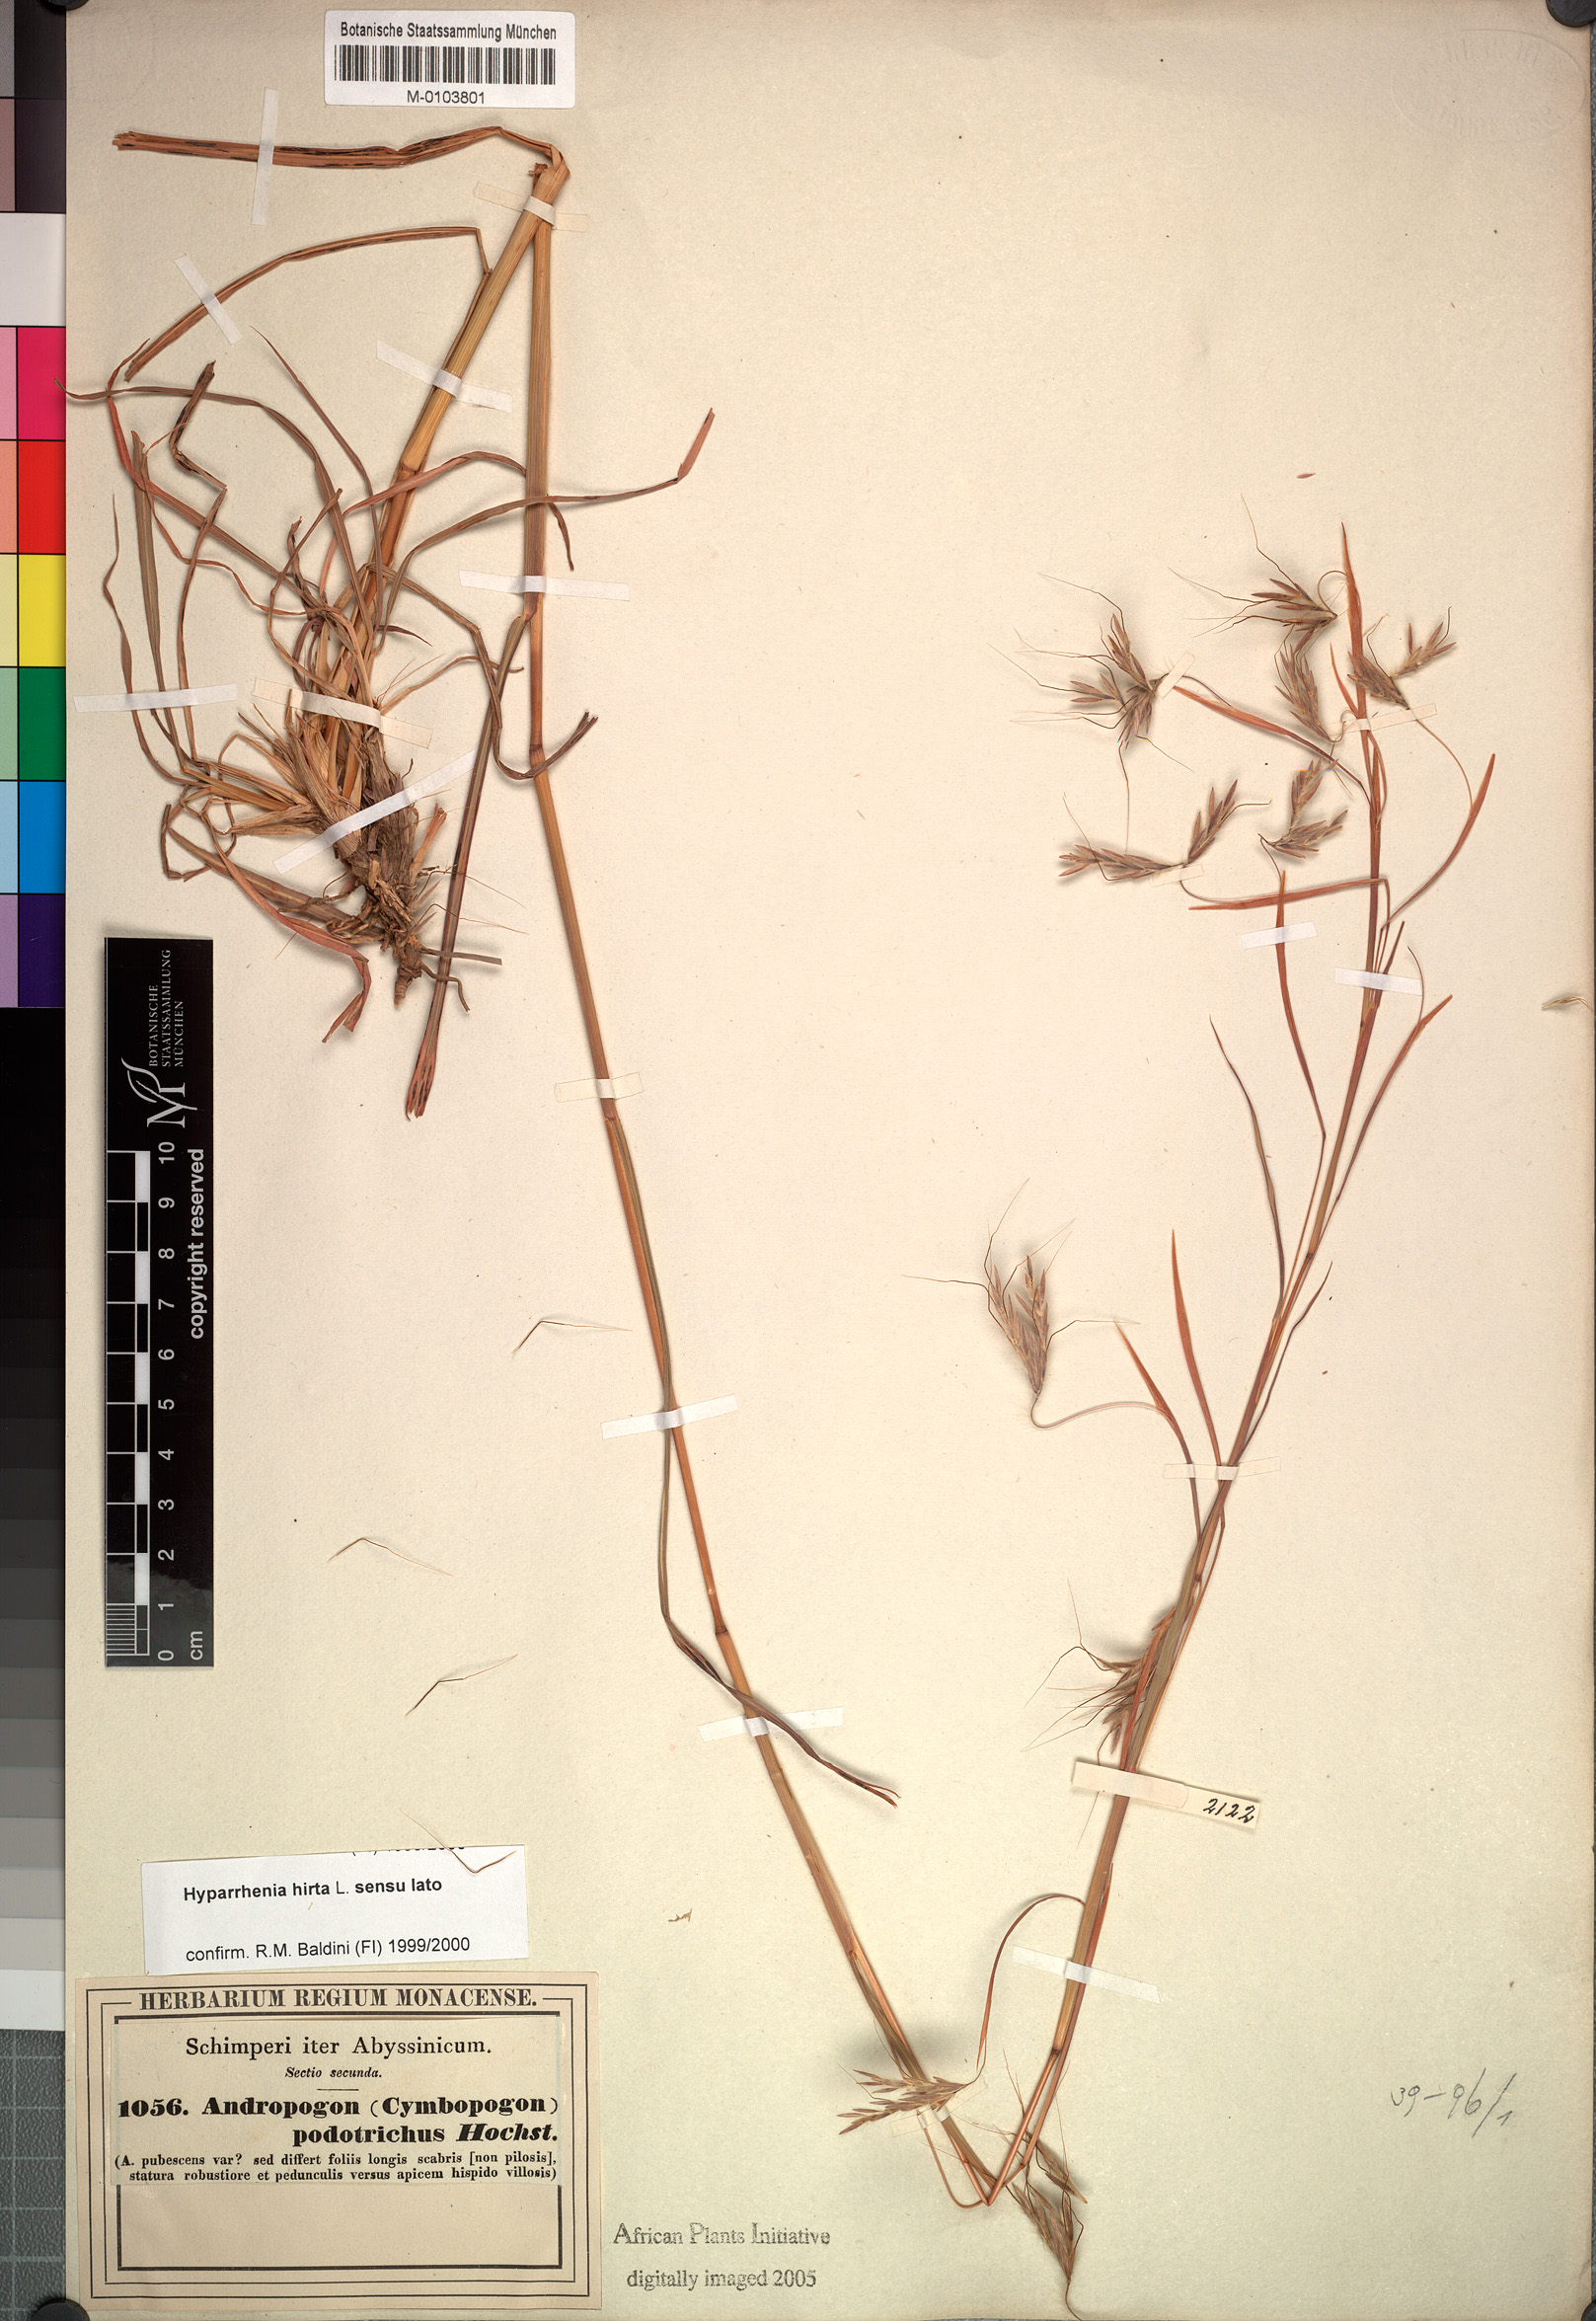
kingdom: Plantae
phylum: Tracheophyta
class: Liliopsida
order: Poales
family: Poaceae
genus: Hyparrhenia
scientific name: Hyparrhenia hirta
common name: Thatching grass
